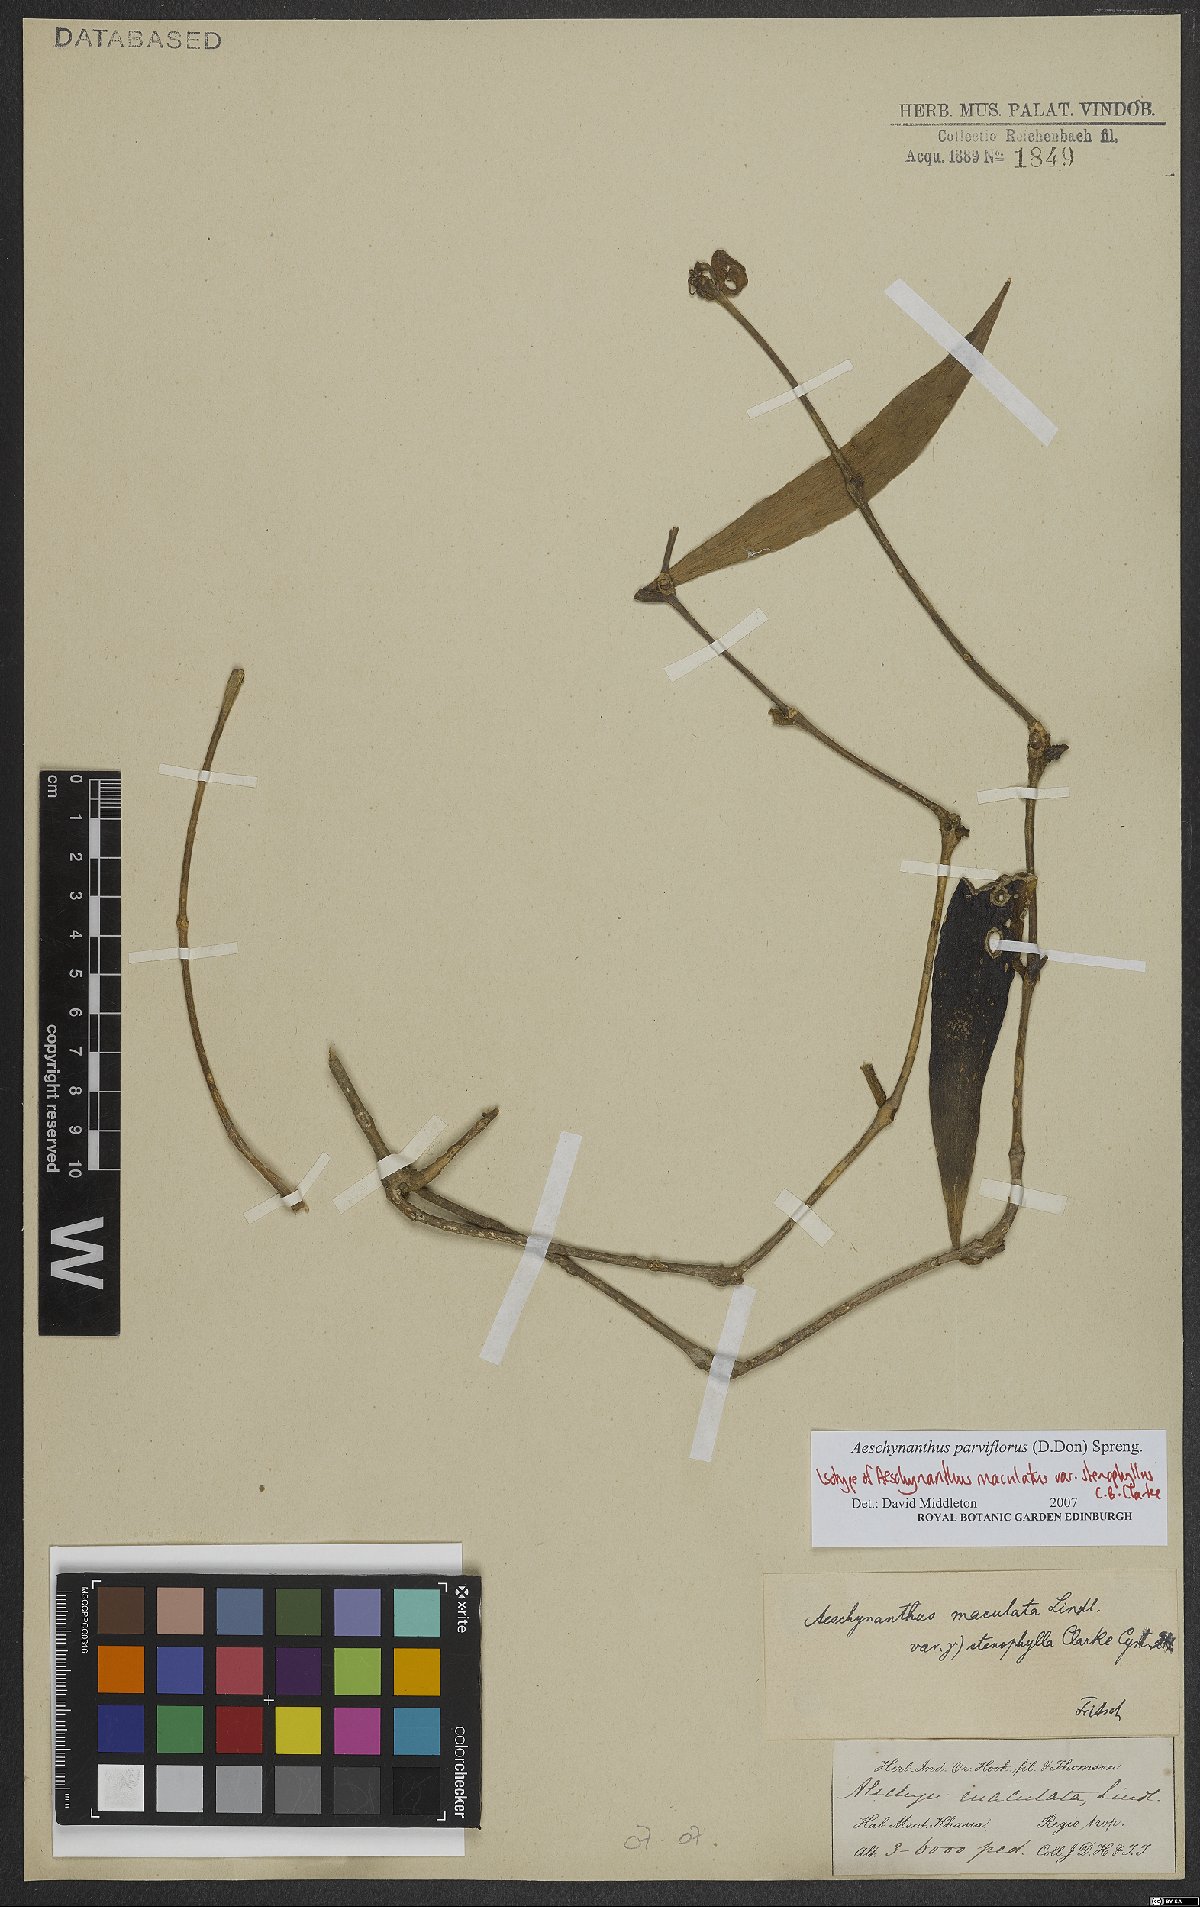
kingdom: Plantae
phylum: Tracheophyta
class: Magnoliopsida
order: Lamiales
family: Gesneriaceae
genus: Aeschynanthus
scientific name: Aeschynanthus parviflorus
